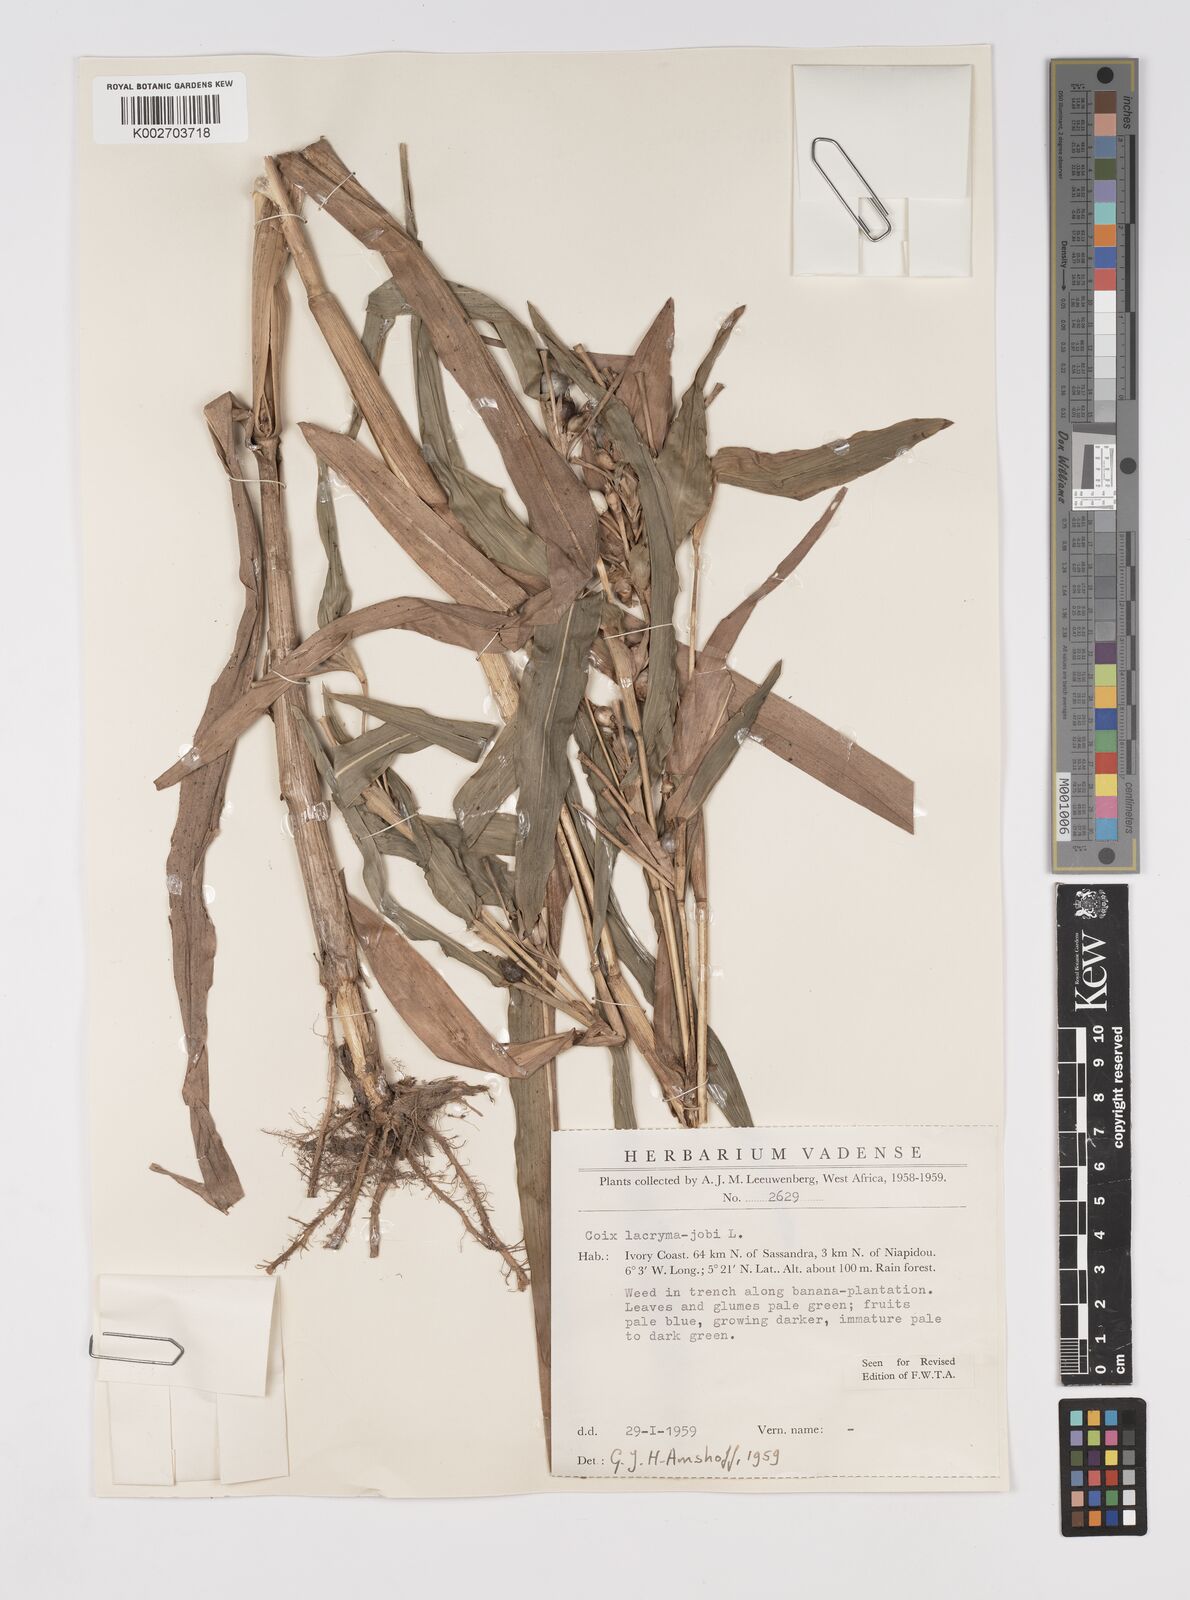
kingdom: Plantae
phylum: Tracheophyta
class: Liliopsida
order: Poales
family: Poaceae
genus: Coix
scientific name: Coix lacryma-jobi
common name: Job's tears
